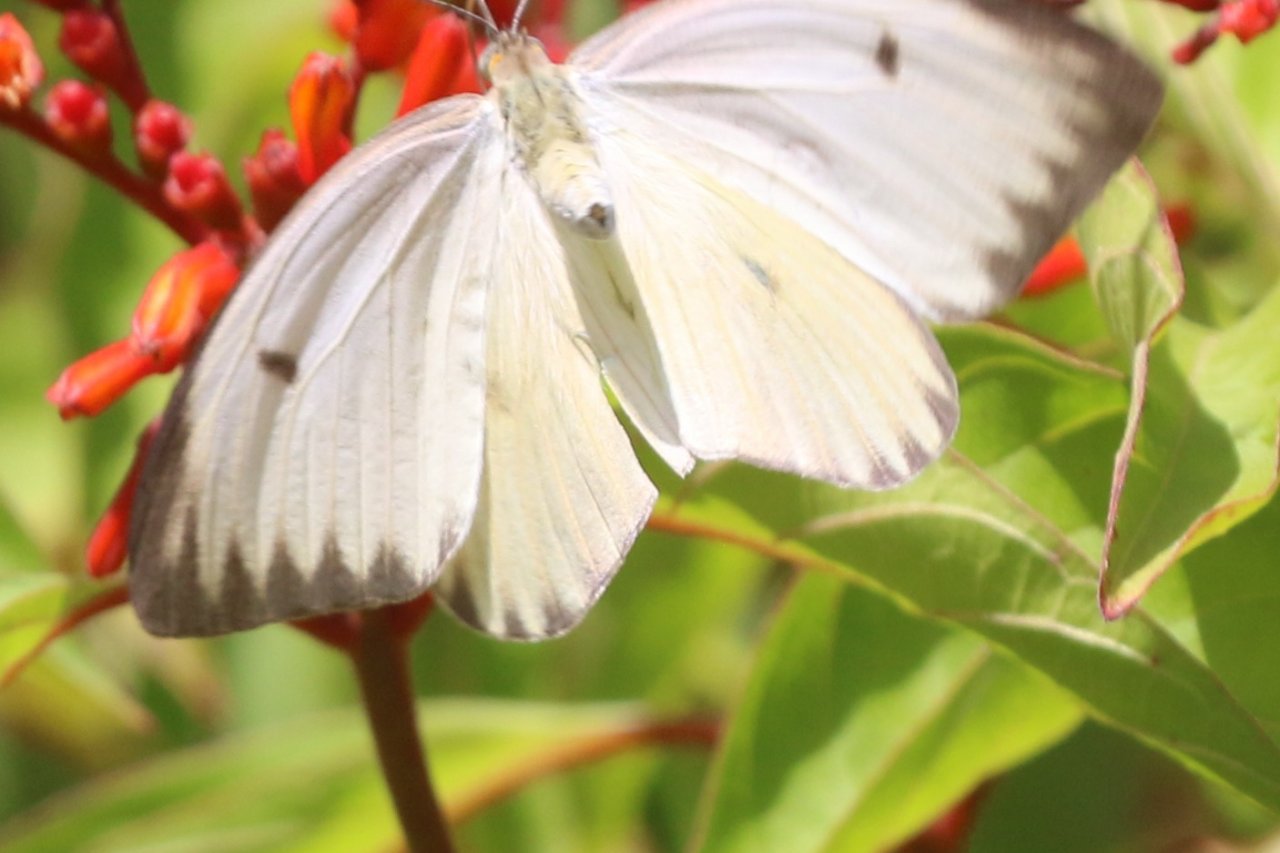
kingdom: Animalia
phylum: Arthropoda
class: Insecta
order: Lepidoptera
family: Pieridae
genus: Ascia
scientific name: Ascia monuste
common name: Great Southern White
